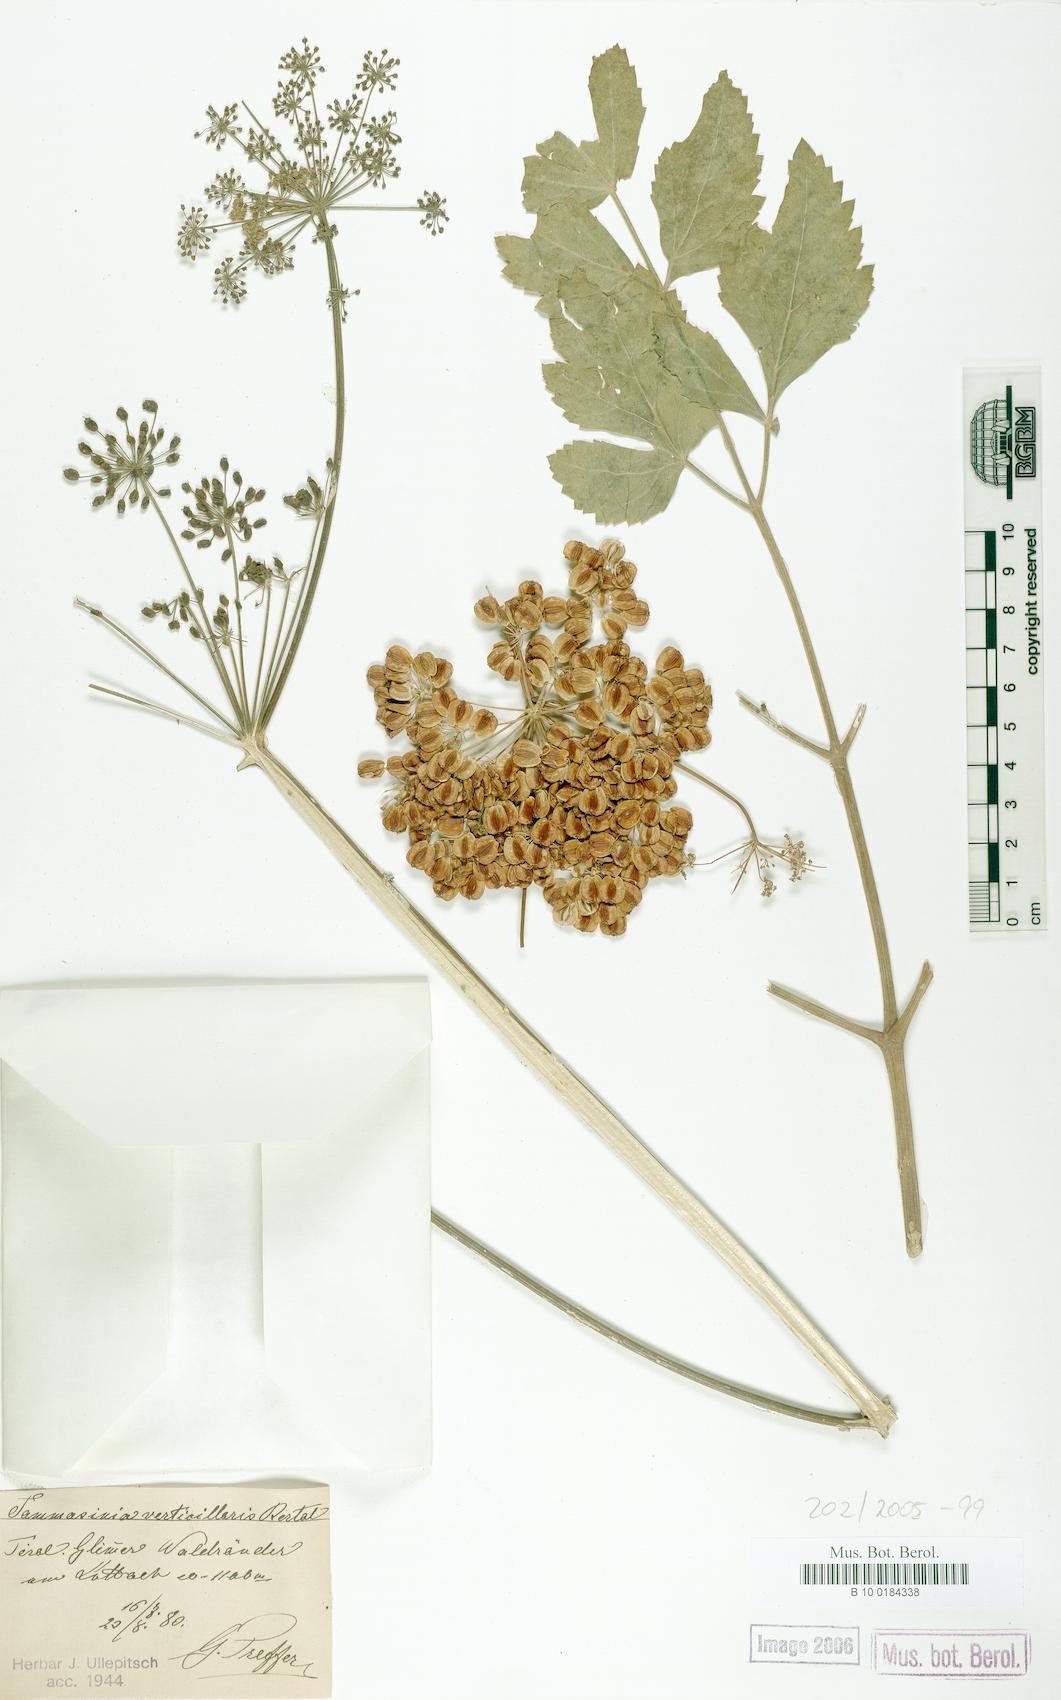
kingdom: Plantae
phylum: Tracheophyta
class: Magnoliopsida
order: Apiales
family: Apiaceae
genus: Tommasinia
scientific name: Tommasinia altissima
